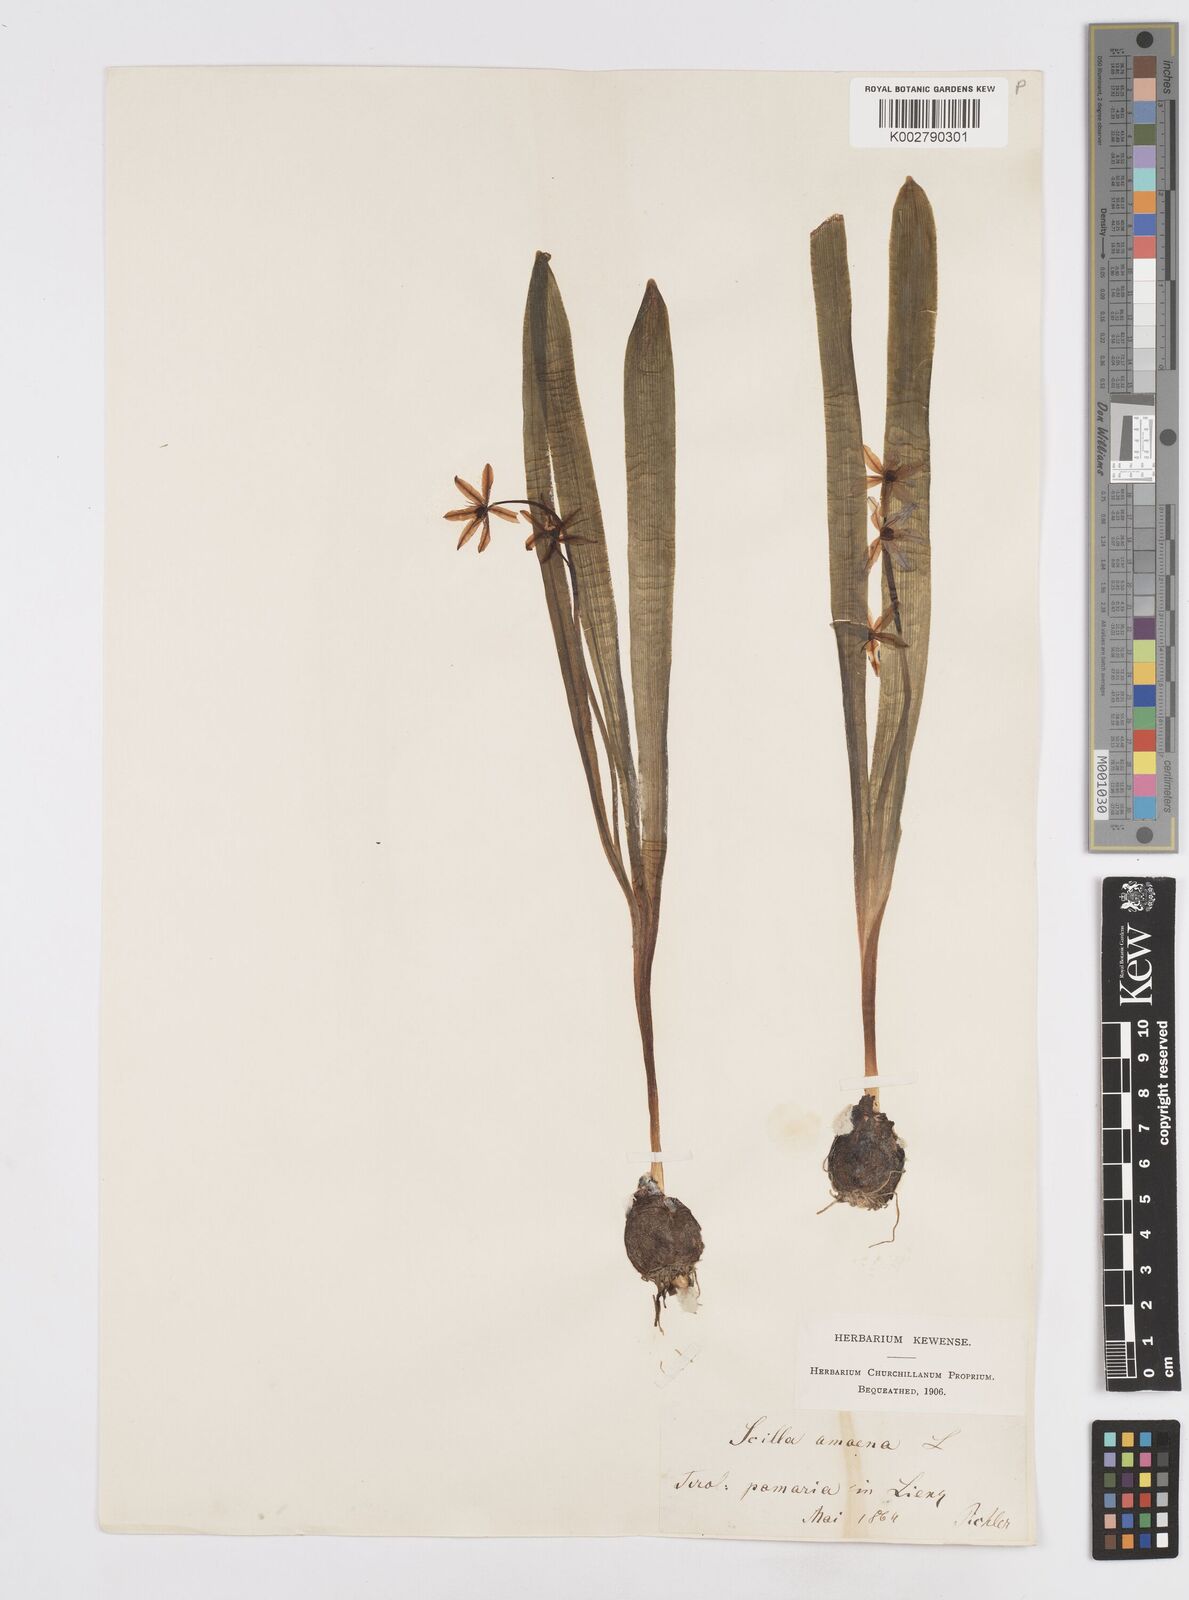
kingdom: Plantae
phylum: Tracheophyta
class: Liliopsida
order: Asparagales
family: Asparagaceae
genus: Scilla
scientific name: Scilla amoena
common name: Star-hyacinth
